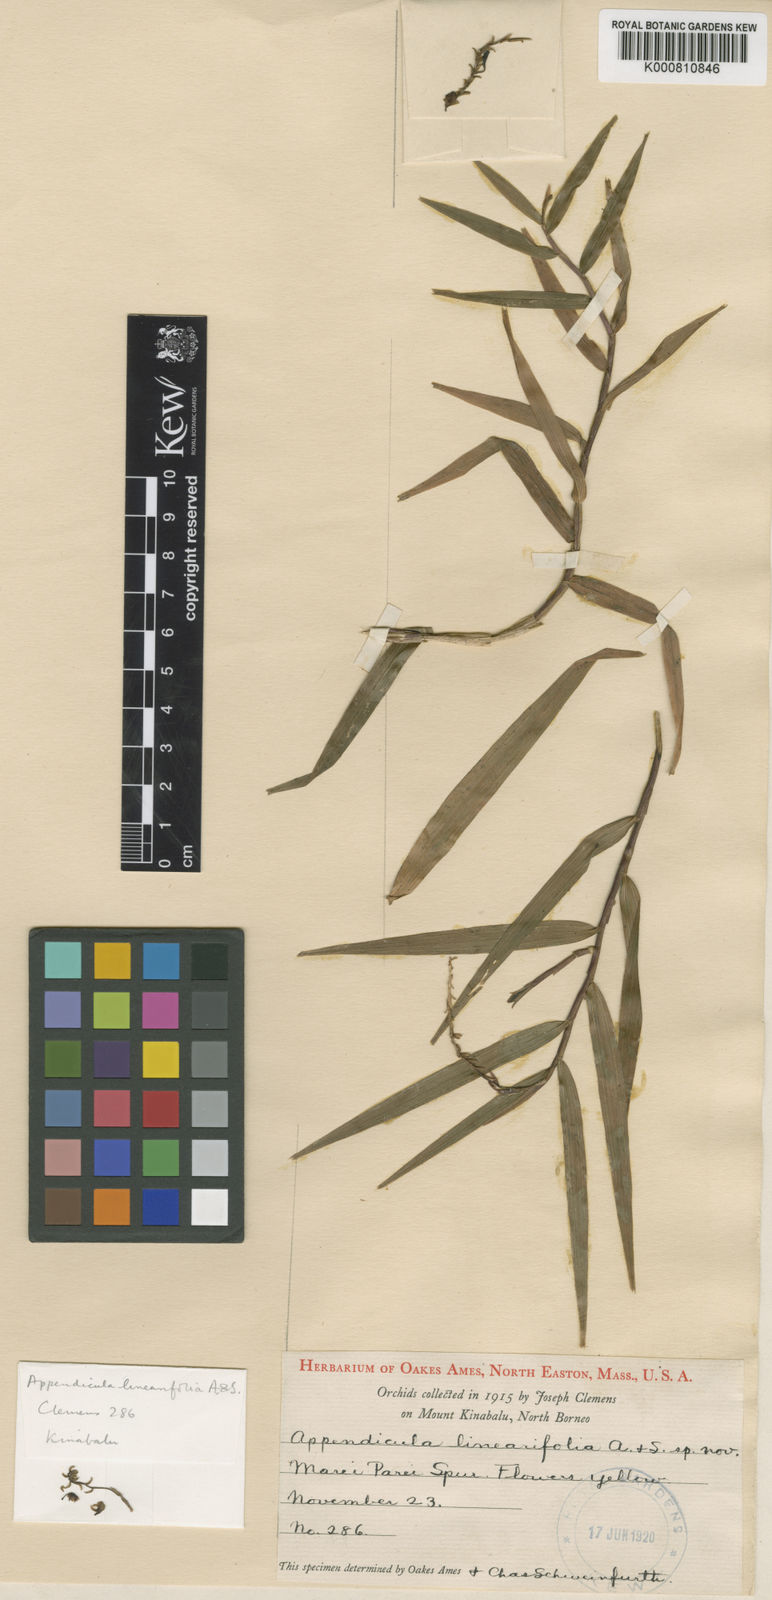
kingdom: Plantae
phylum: Tracheophyta
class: Liliopsida
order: Asparagales
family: Orchidaceae
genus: Appendicula
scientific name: Appendicula linearifolia
